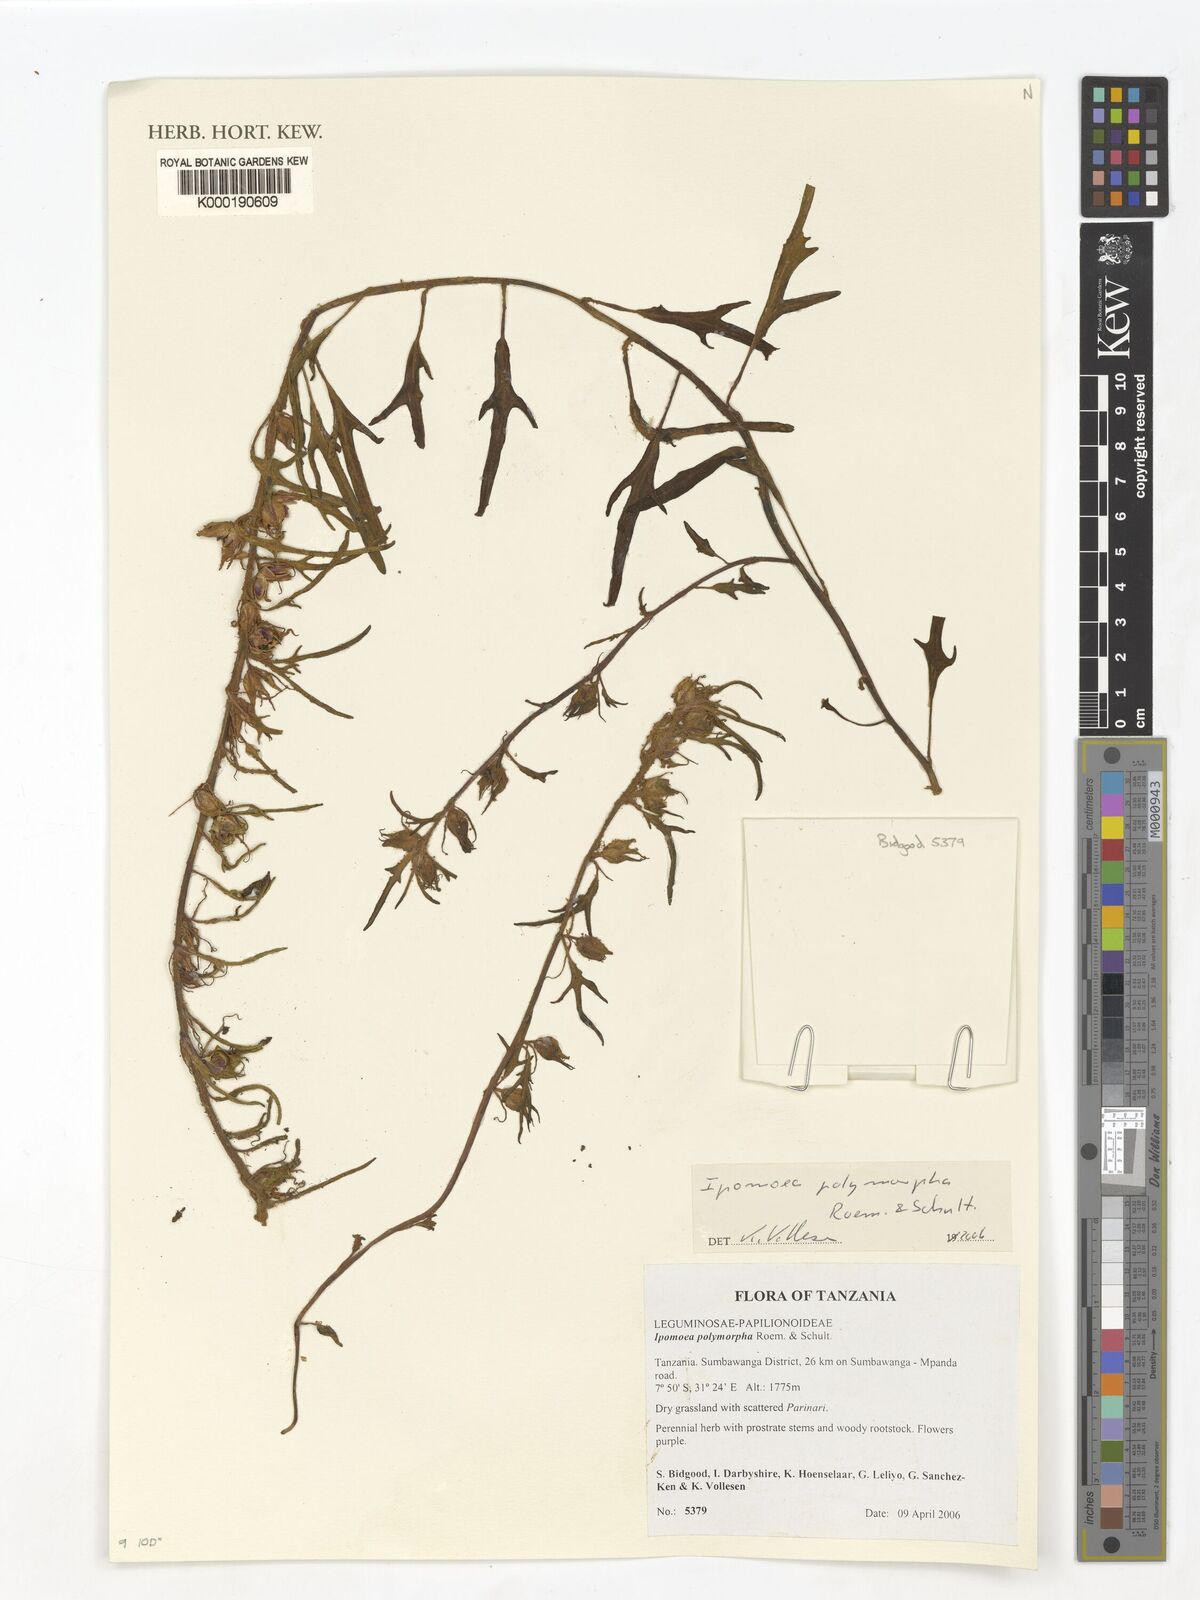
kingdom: Plantae
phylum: Tracheophyta
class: Magnoliopsida
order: Solanales
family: Convolvulaceae
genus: Ipomoea
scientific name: Ipomoea polymorpha
